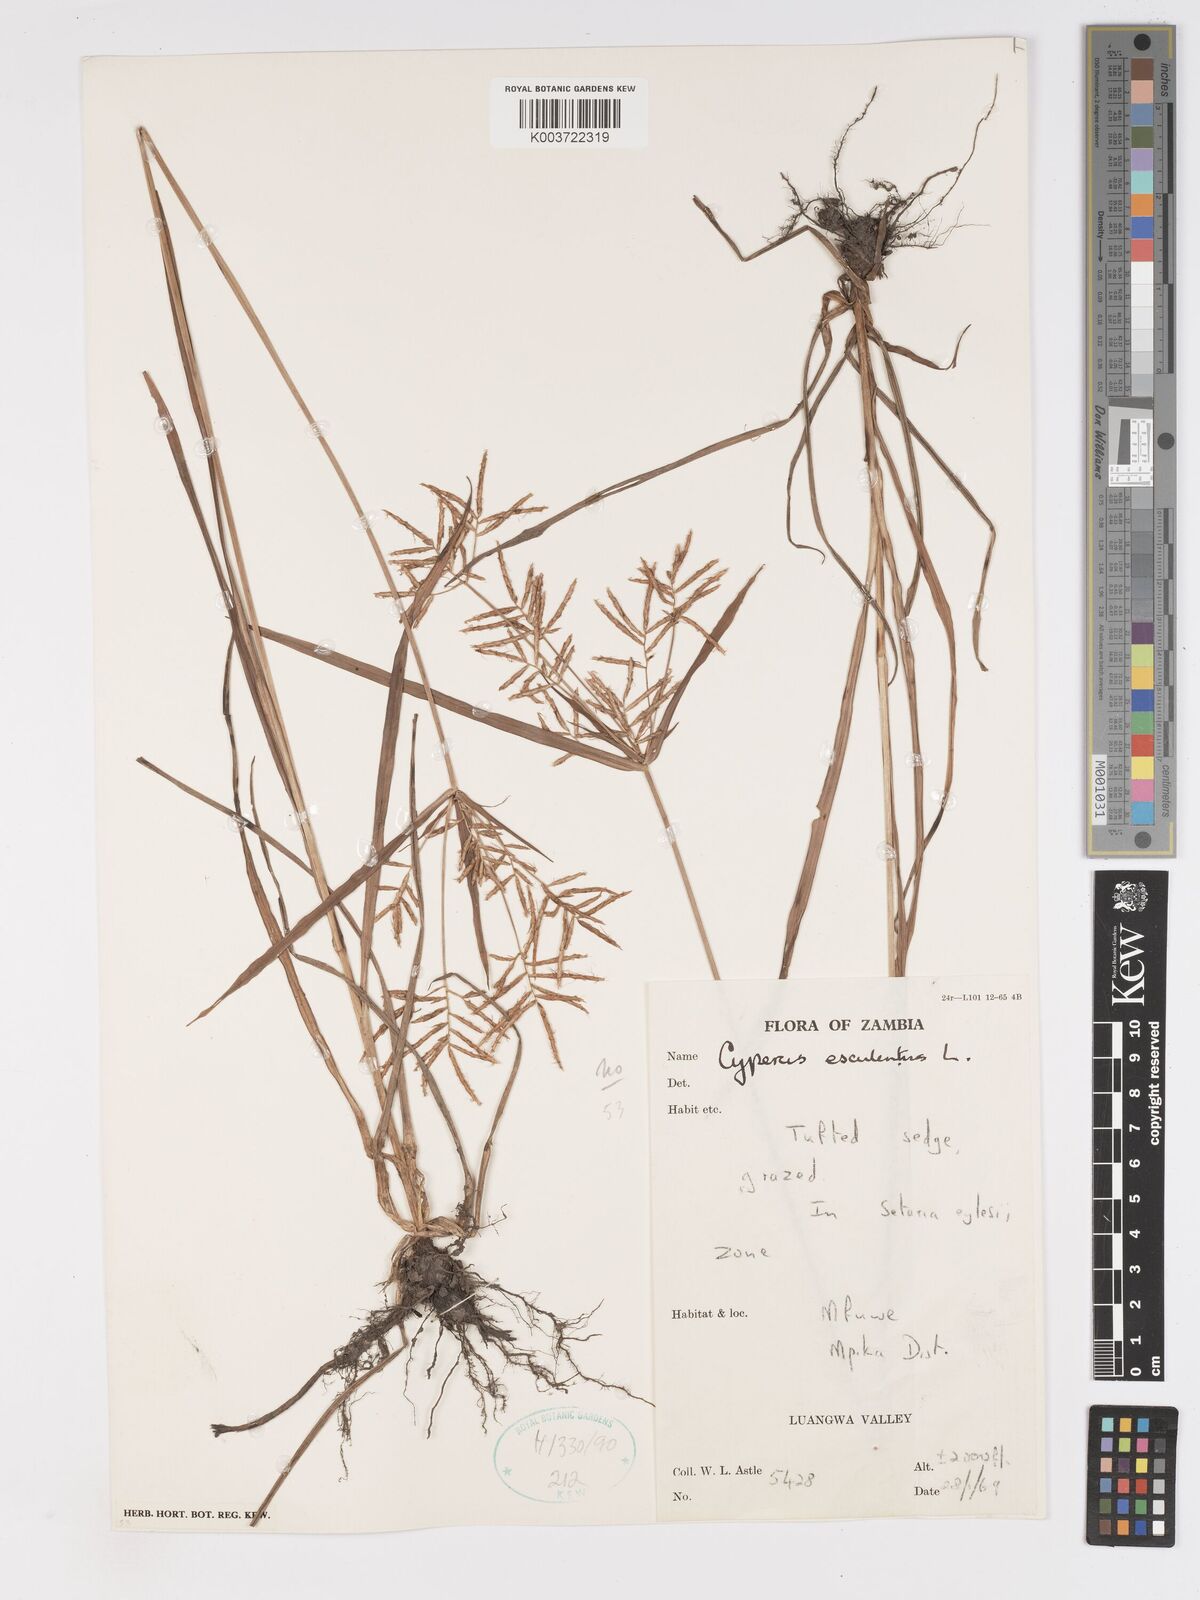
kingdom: Plantae
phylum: Tracheophyta
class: Liliopsida
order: Poales
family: Cyperaceae
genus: Cyperus
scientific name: Cyperus esculentus
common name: Yellow nutsedge
